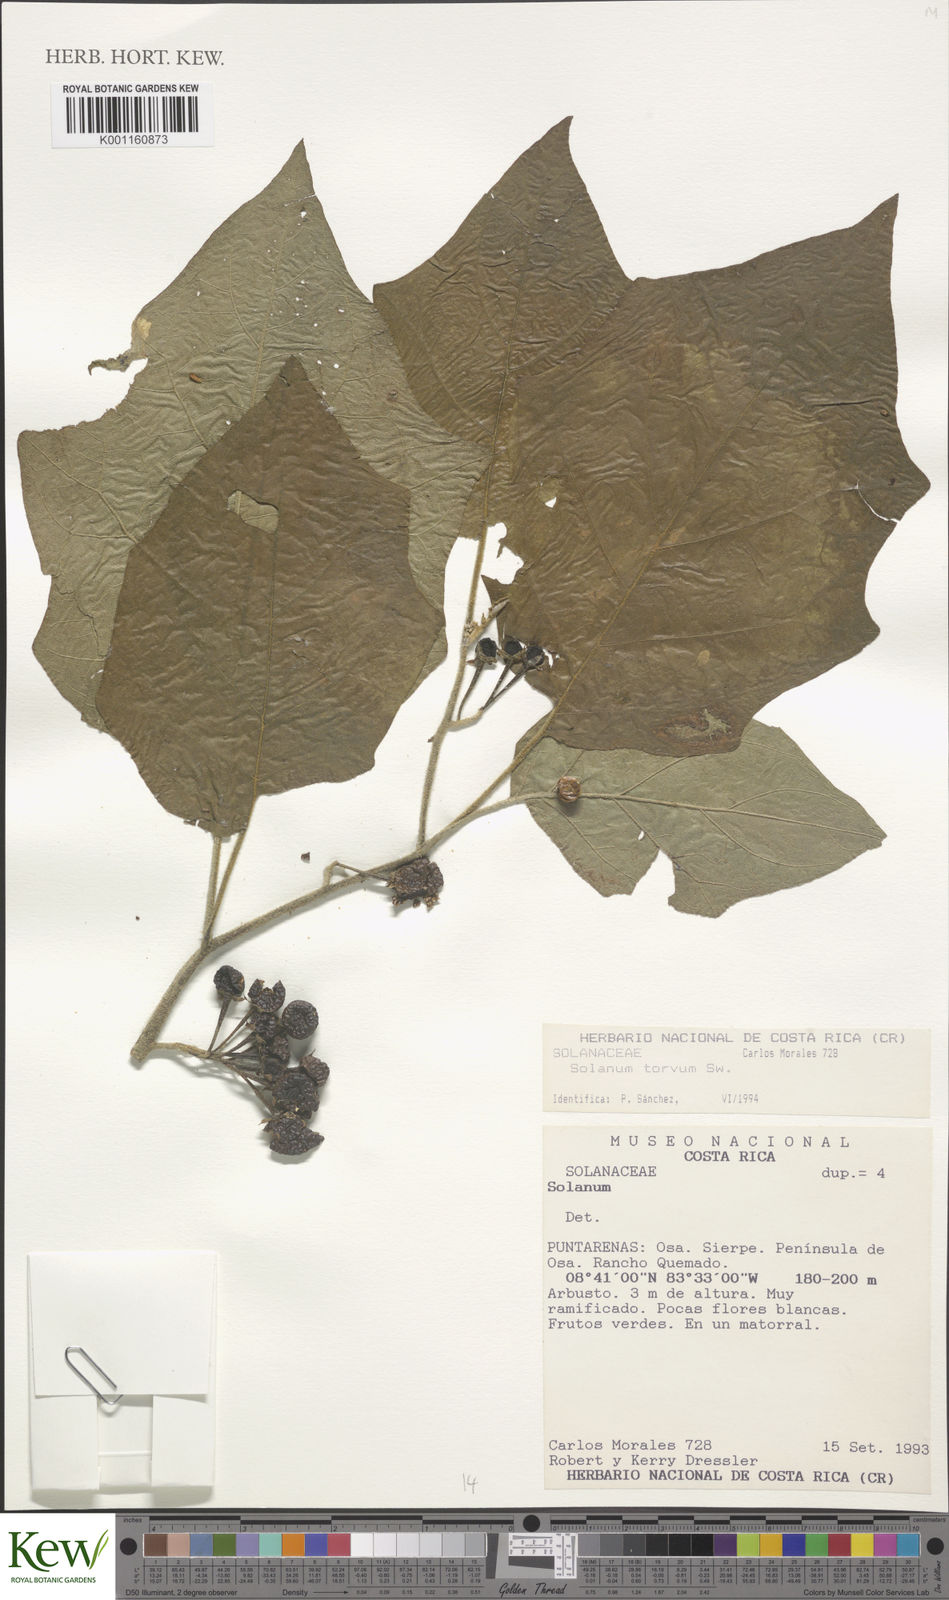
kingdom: Plantae
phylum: Tracheophyta
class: Magnoliopsida
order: Solanales
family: Solanaceae
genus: Solanum
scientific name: Solanum torvum
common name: Turkey berry
